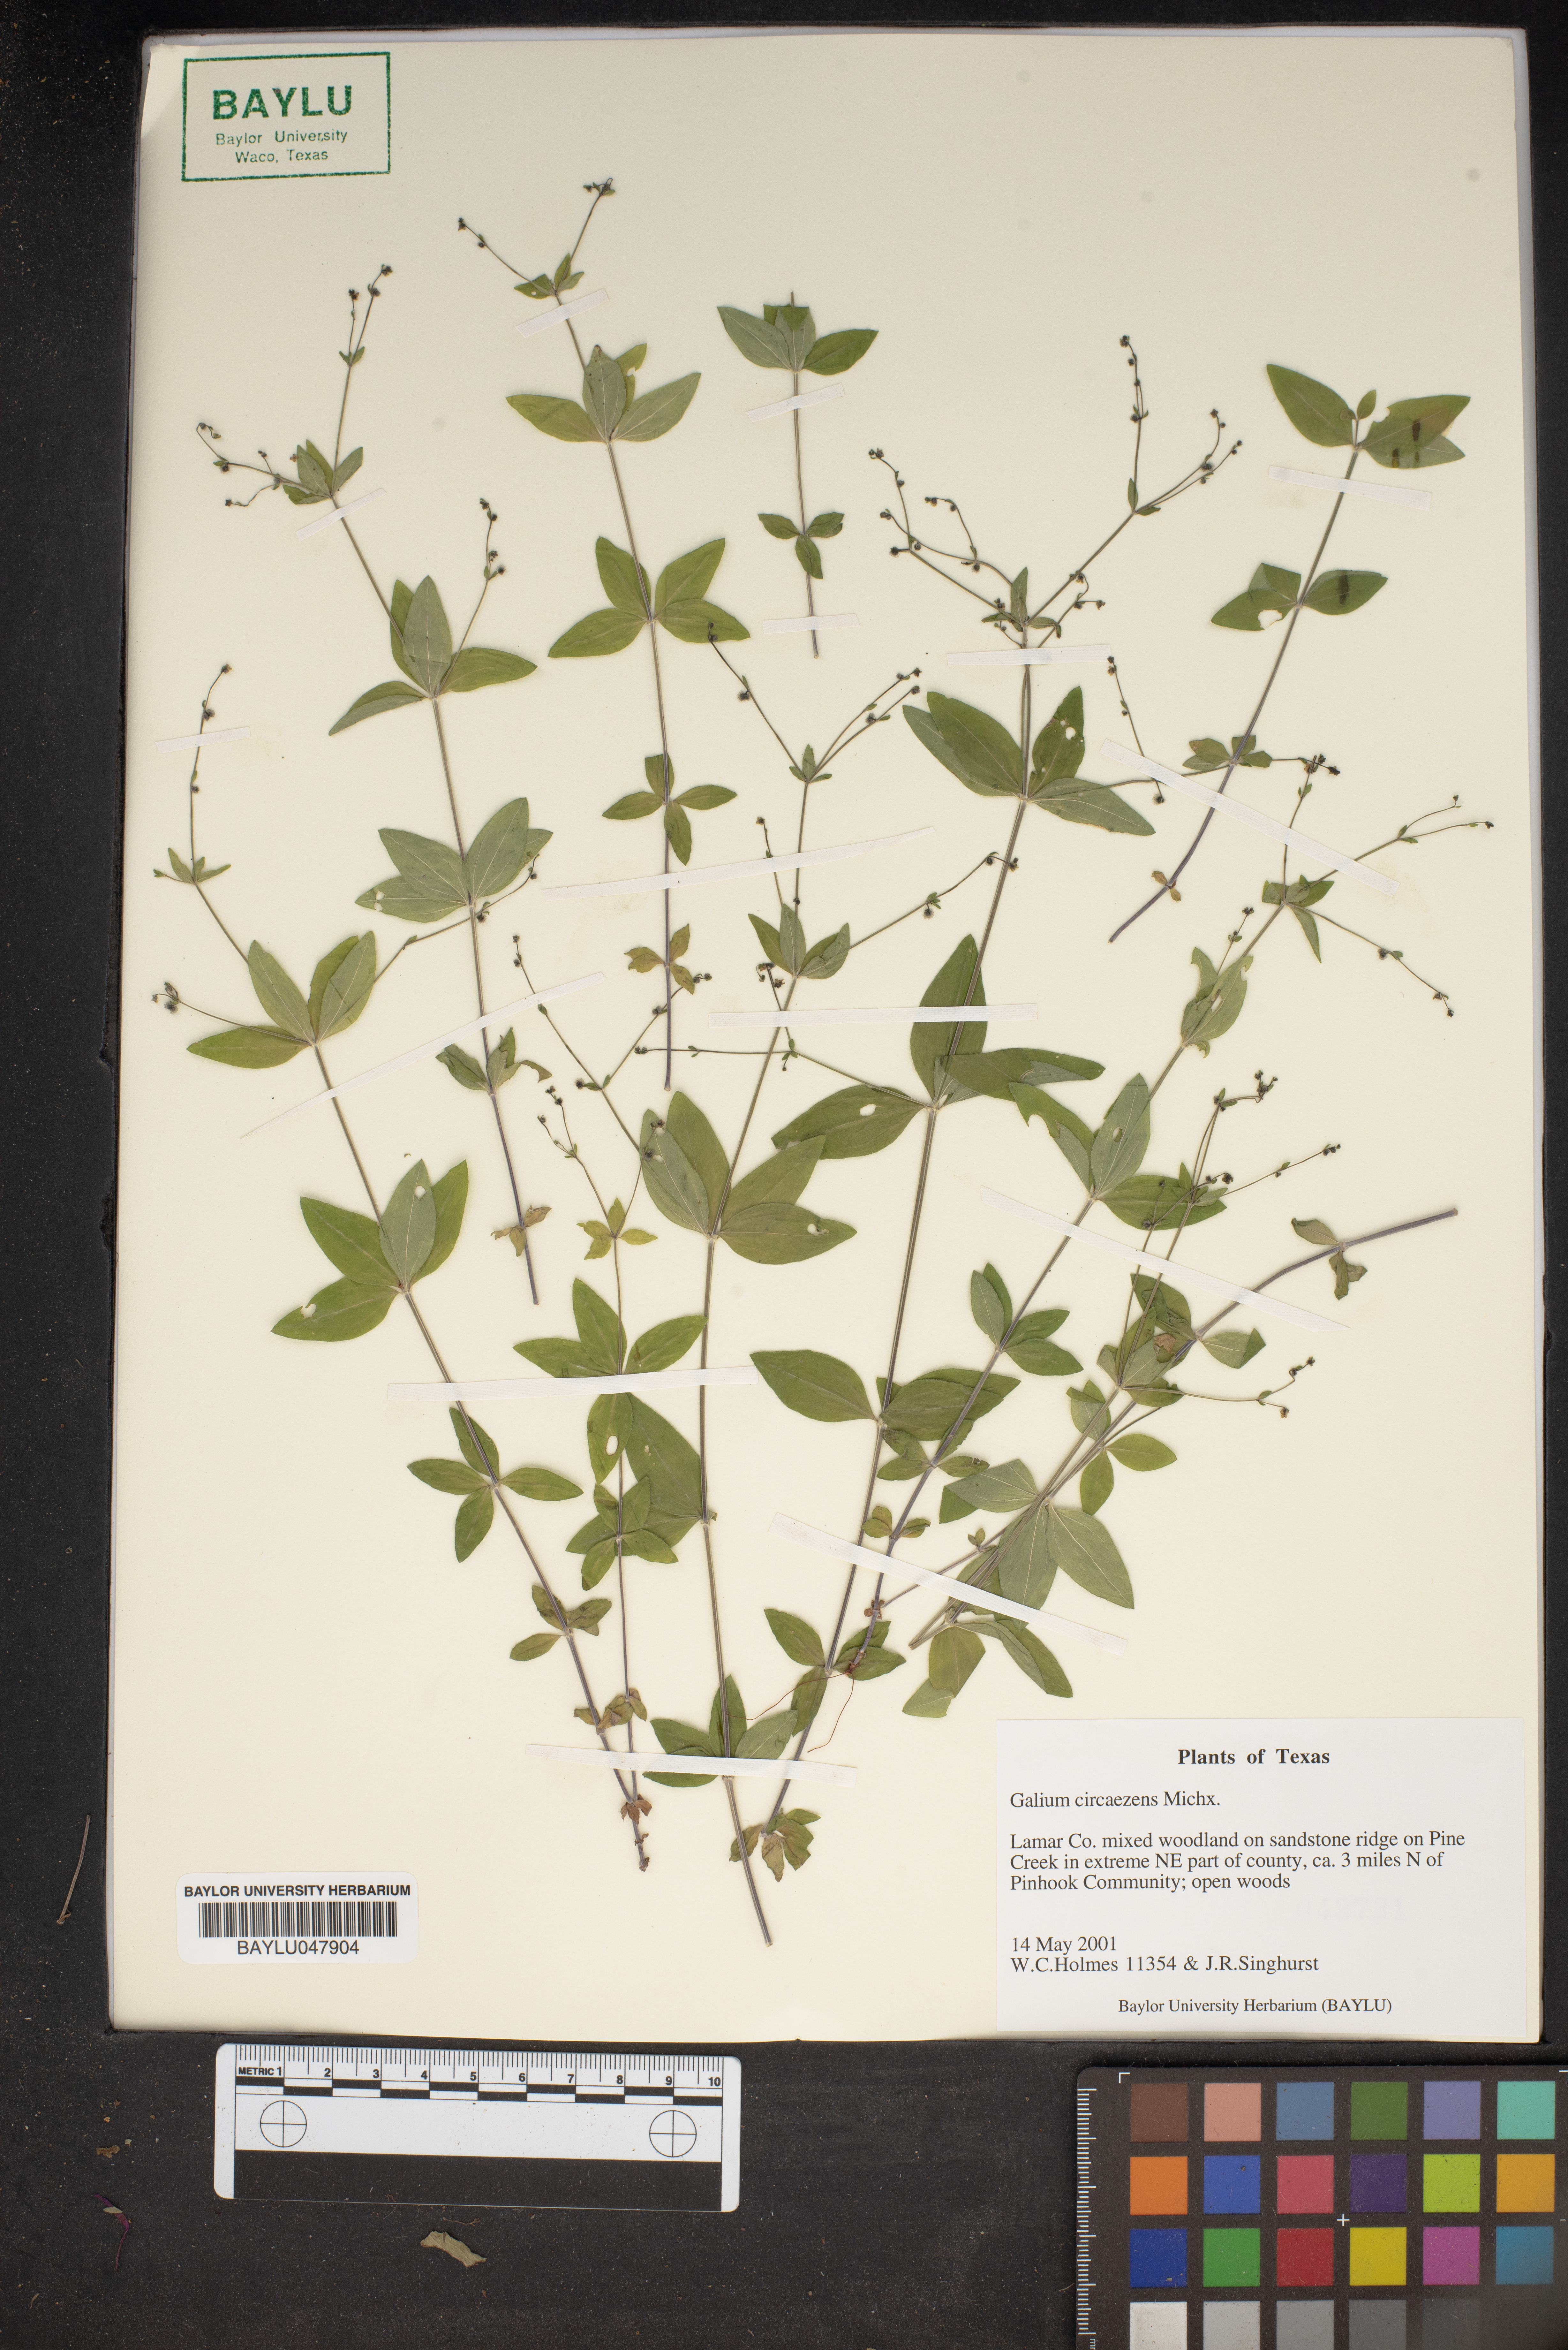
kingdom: Plantae
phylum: Tracheophyta
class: Magnoliopsida
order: Gentianales
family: Rubiaceae
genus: Galium
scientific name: Galium circaezans
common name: Forest bedstraw
